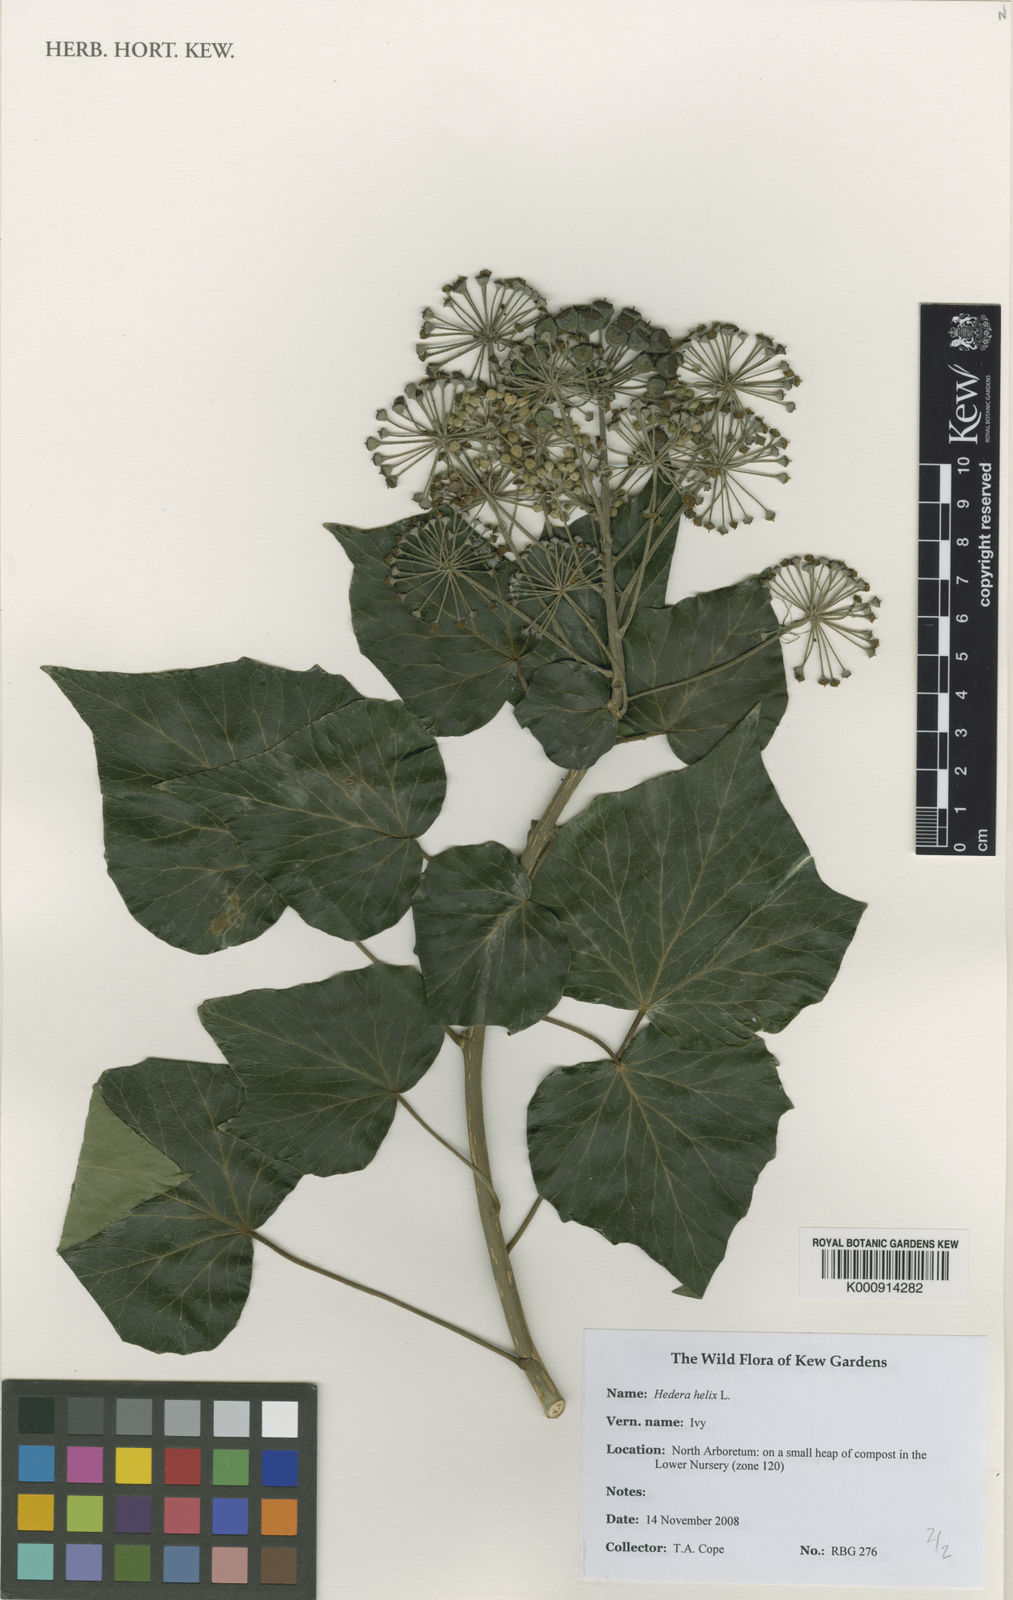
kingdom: Plantae
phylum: Tracheophyta
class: Magnoliopsida
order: Apiales
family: Araliaceae
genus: Hedera
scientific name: Hedera helix
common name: Ivy
